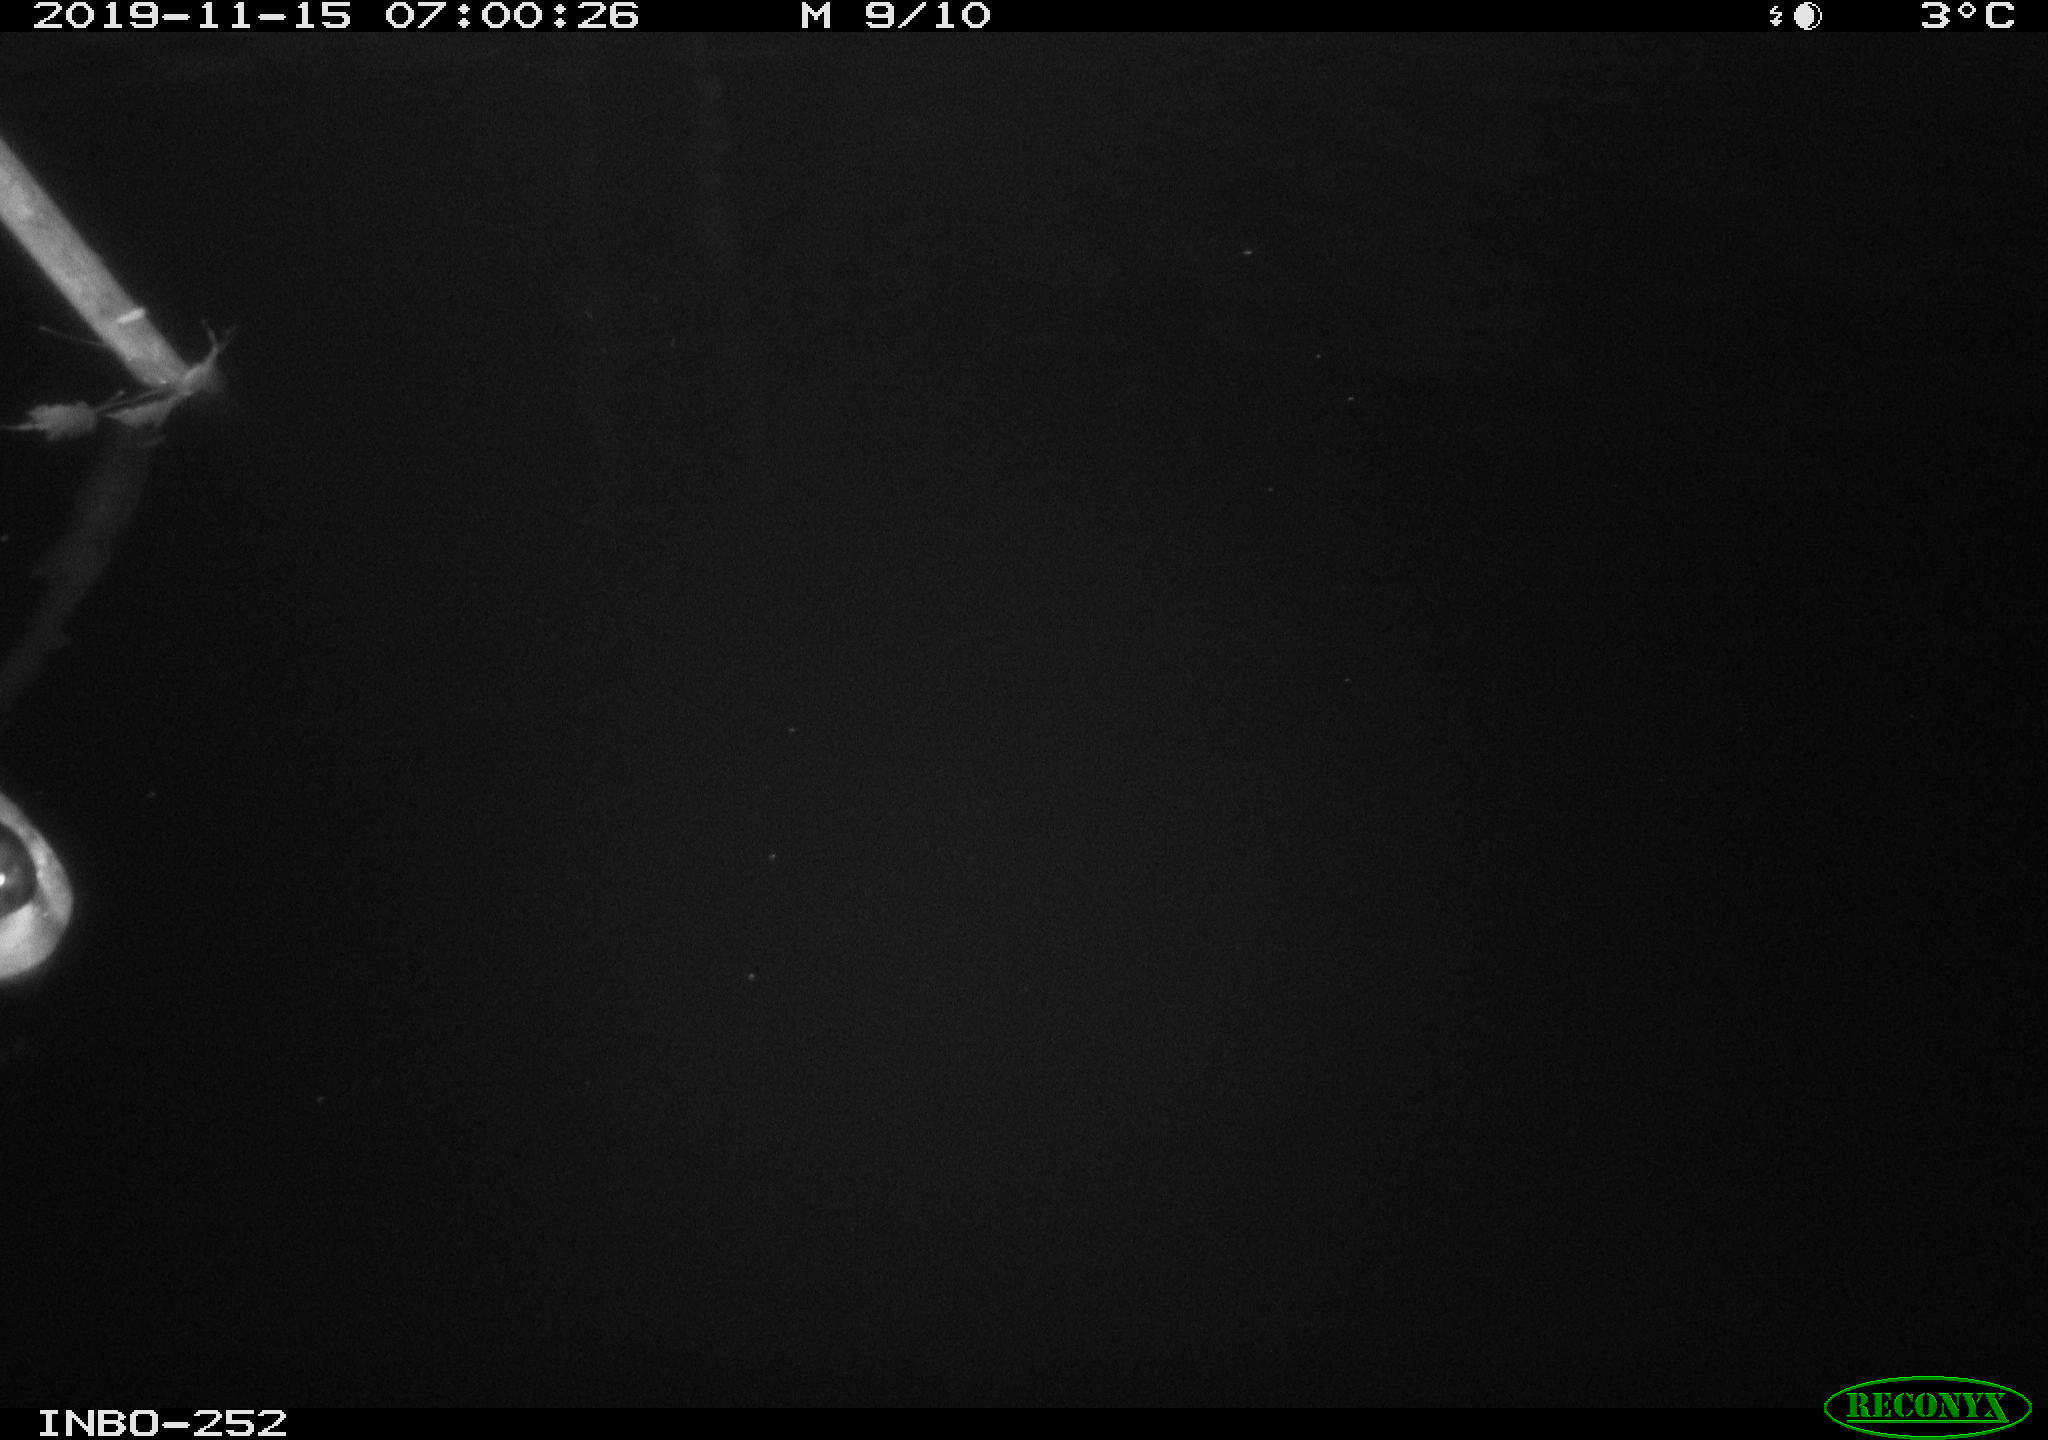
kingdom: Animalia
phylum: Chordata
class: Aves
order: Anseriformes
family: Anatidae
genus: Anas
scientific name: Anas platyrhynchos
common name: Mallard
